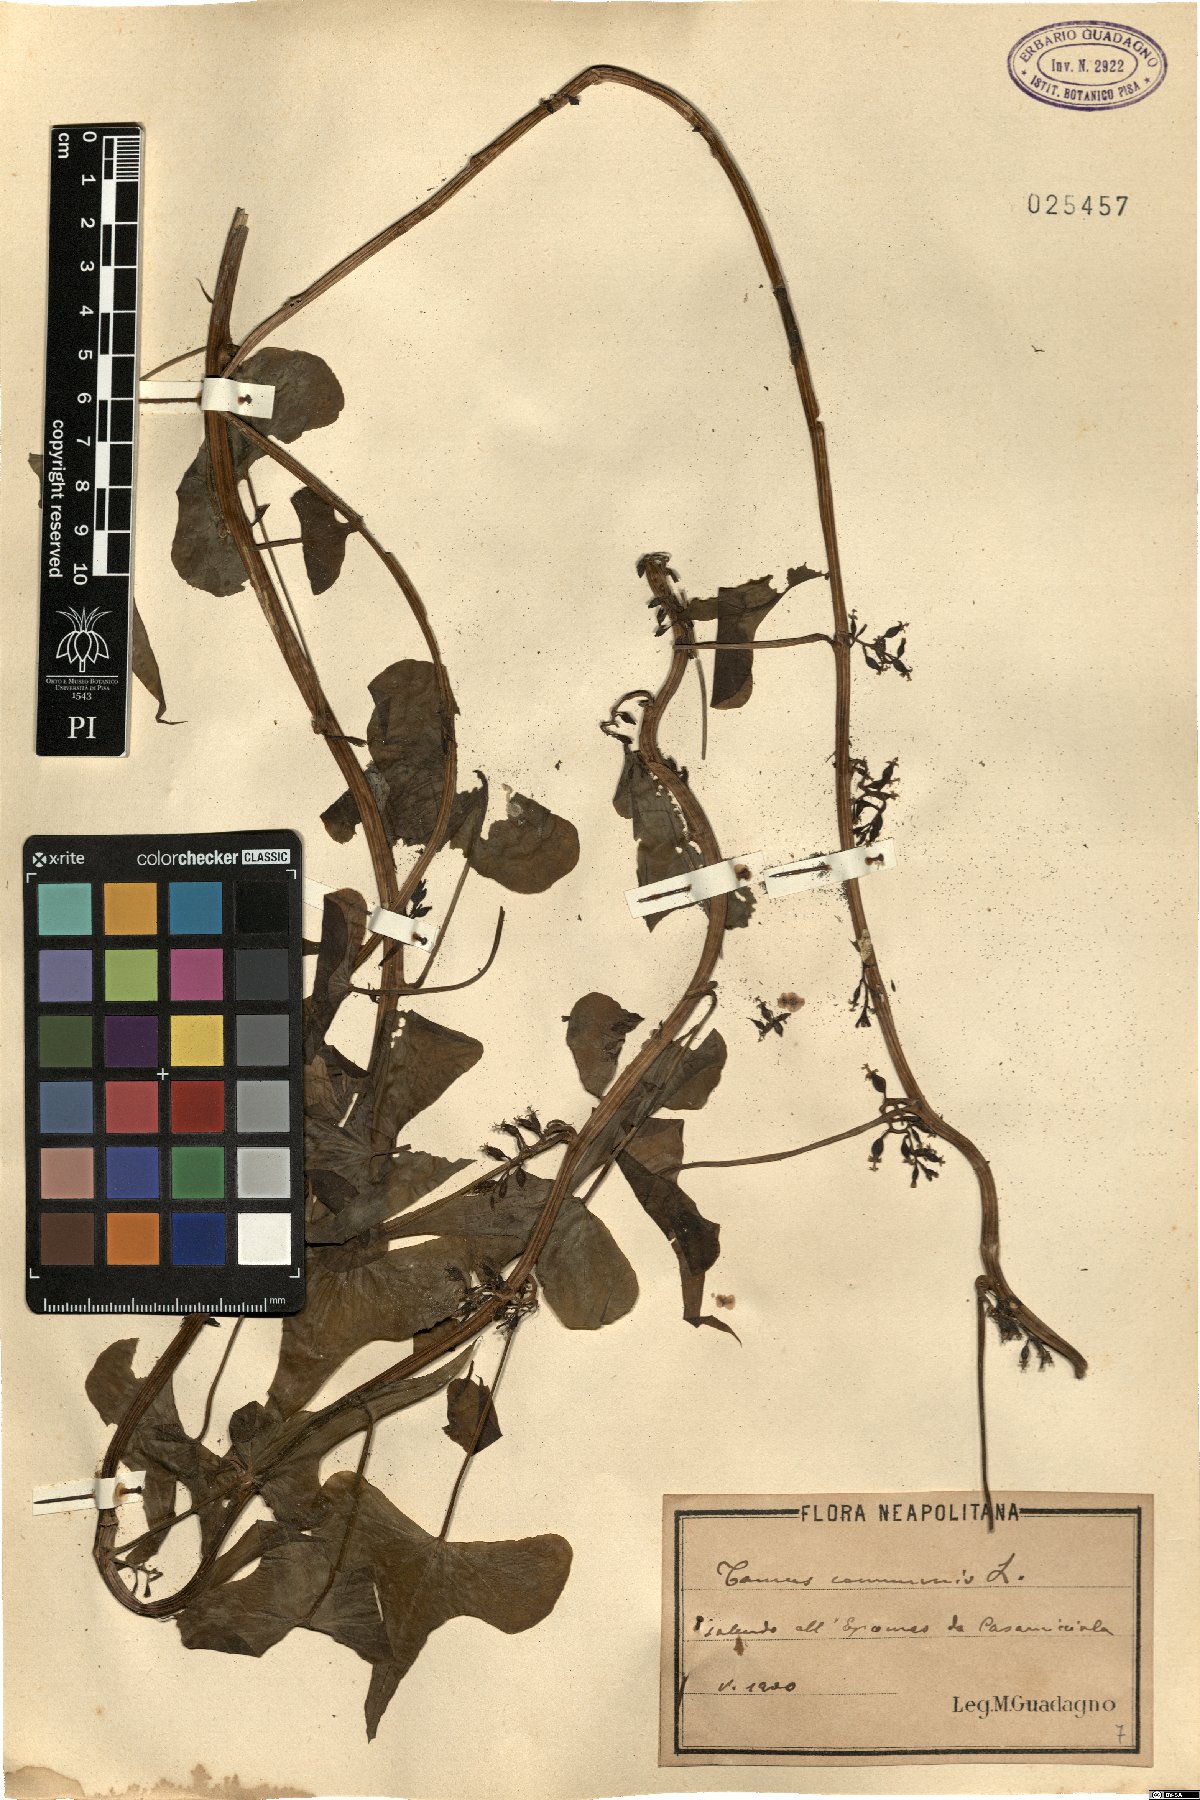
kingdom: Plantae
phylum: Tracheophyta
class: Liliopsida
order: Dioscoreales
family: Dioscoreaceae
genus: Dioscorea
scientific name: Dioscorea communis
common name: Black-bindweed
